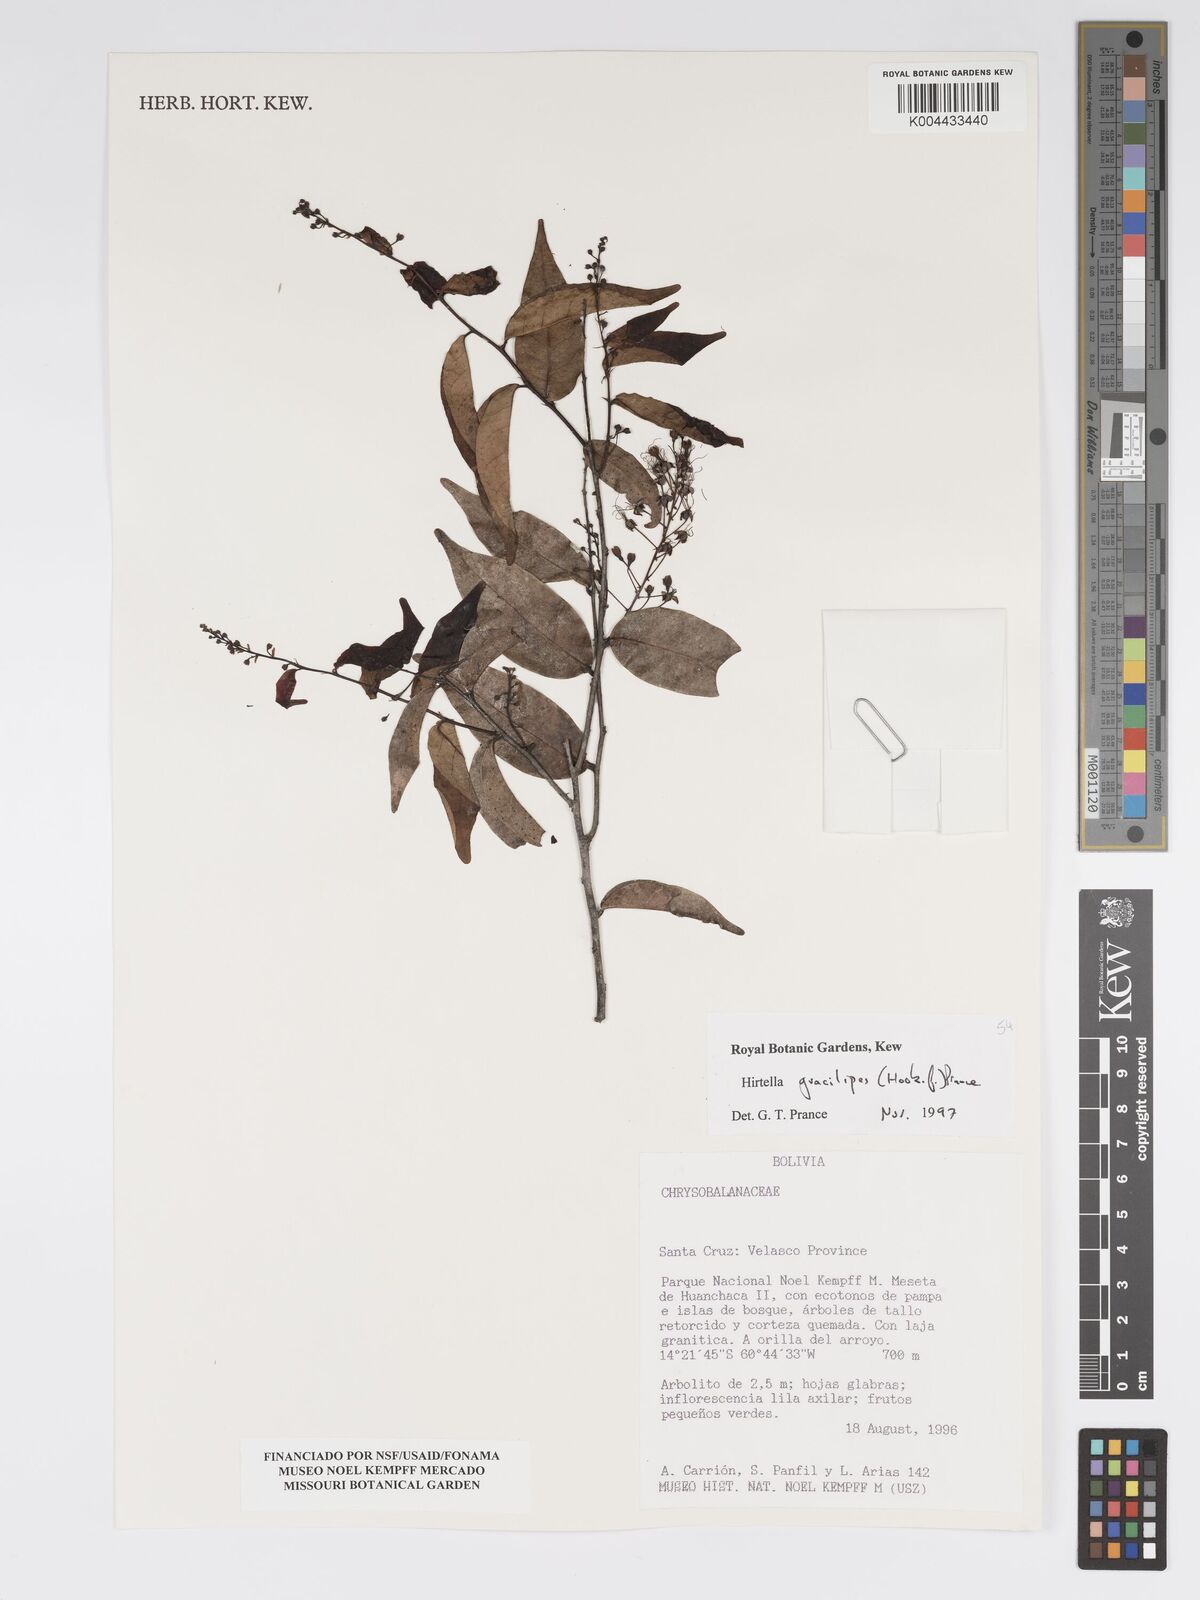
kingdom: Plantae
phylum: Tracheophyta
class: Magnoliopsida
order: Malpighiales
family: Chrysobalanaceae
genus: Hirtella
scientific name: Hirtella gracilipes
